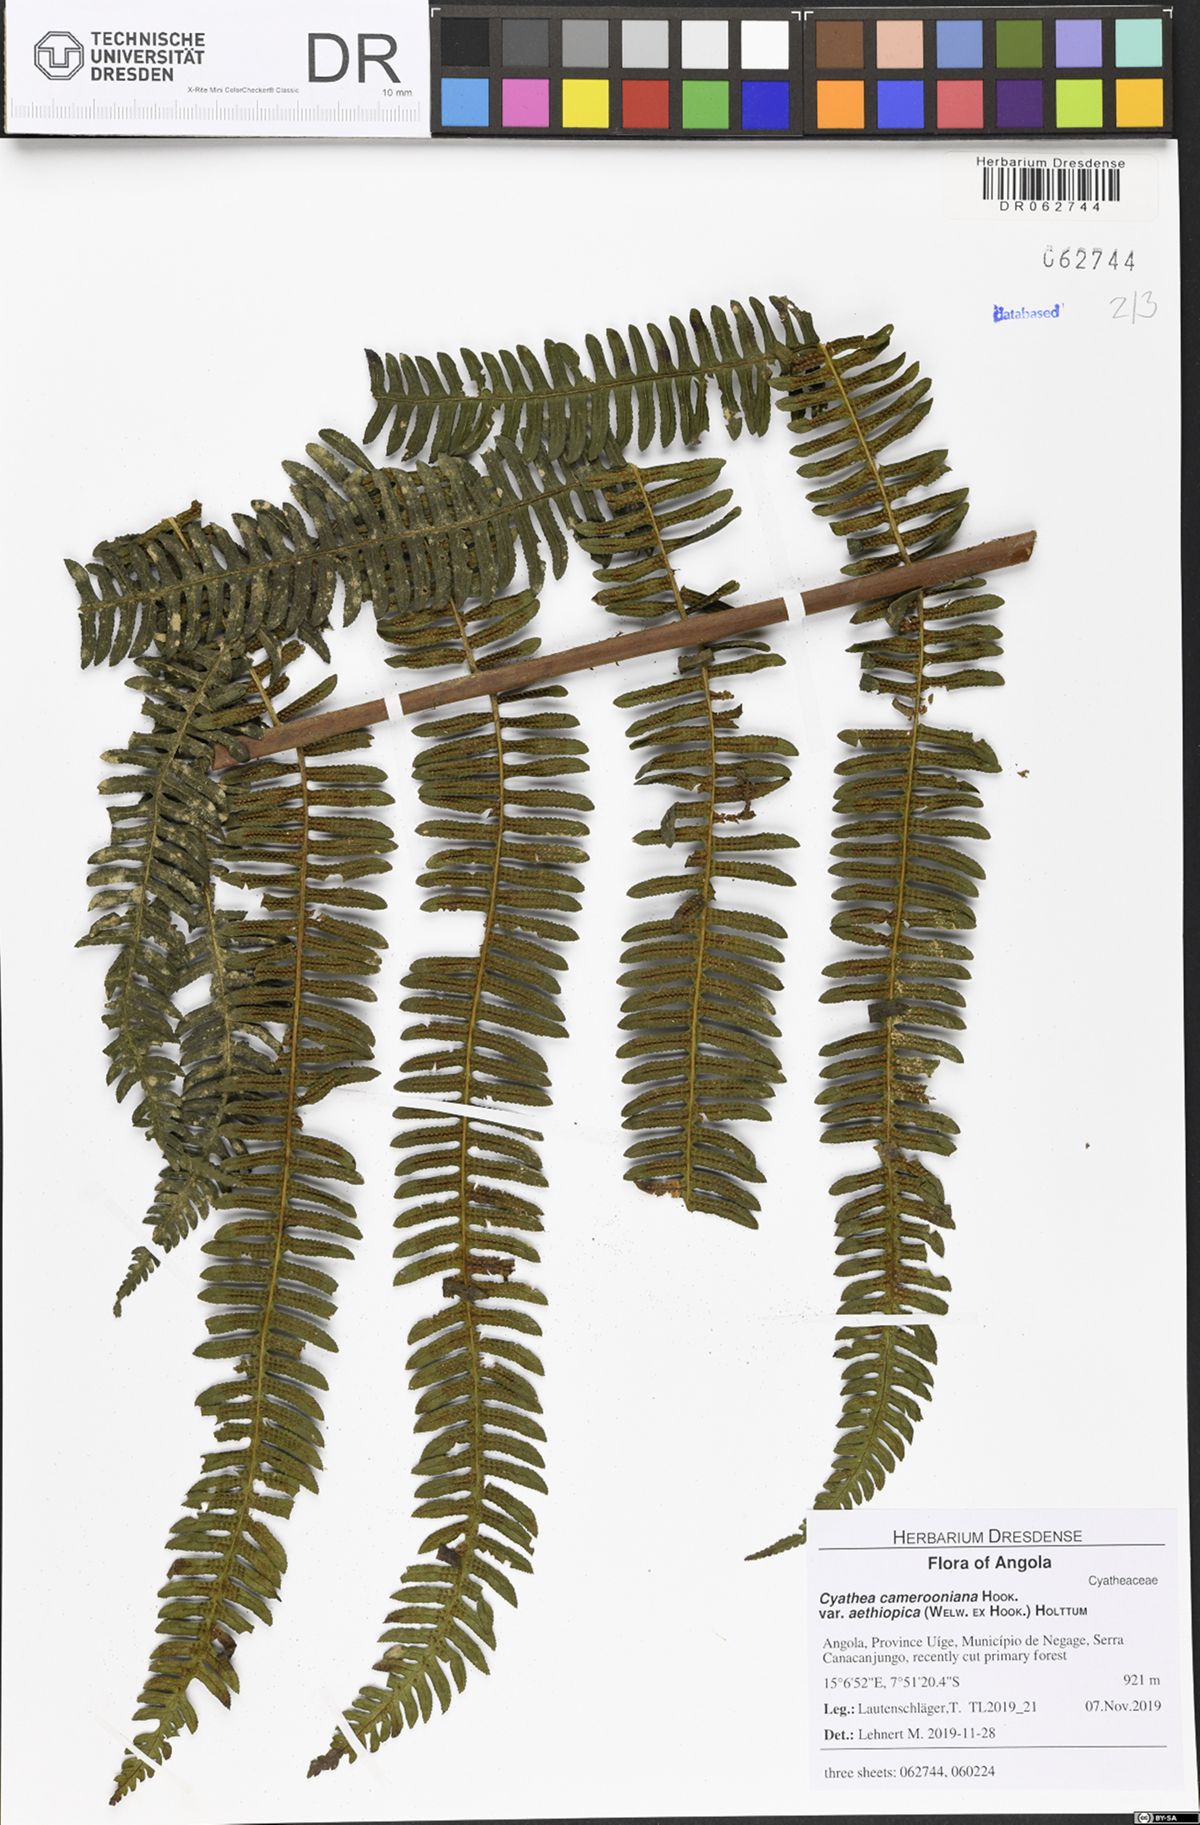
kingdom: Plantae
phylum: Tracheophyta
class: Polypodiopsida
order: Cyatheales
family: Cyatheaceae
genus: Alsophila
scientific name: Alsophila camerooniana
